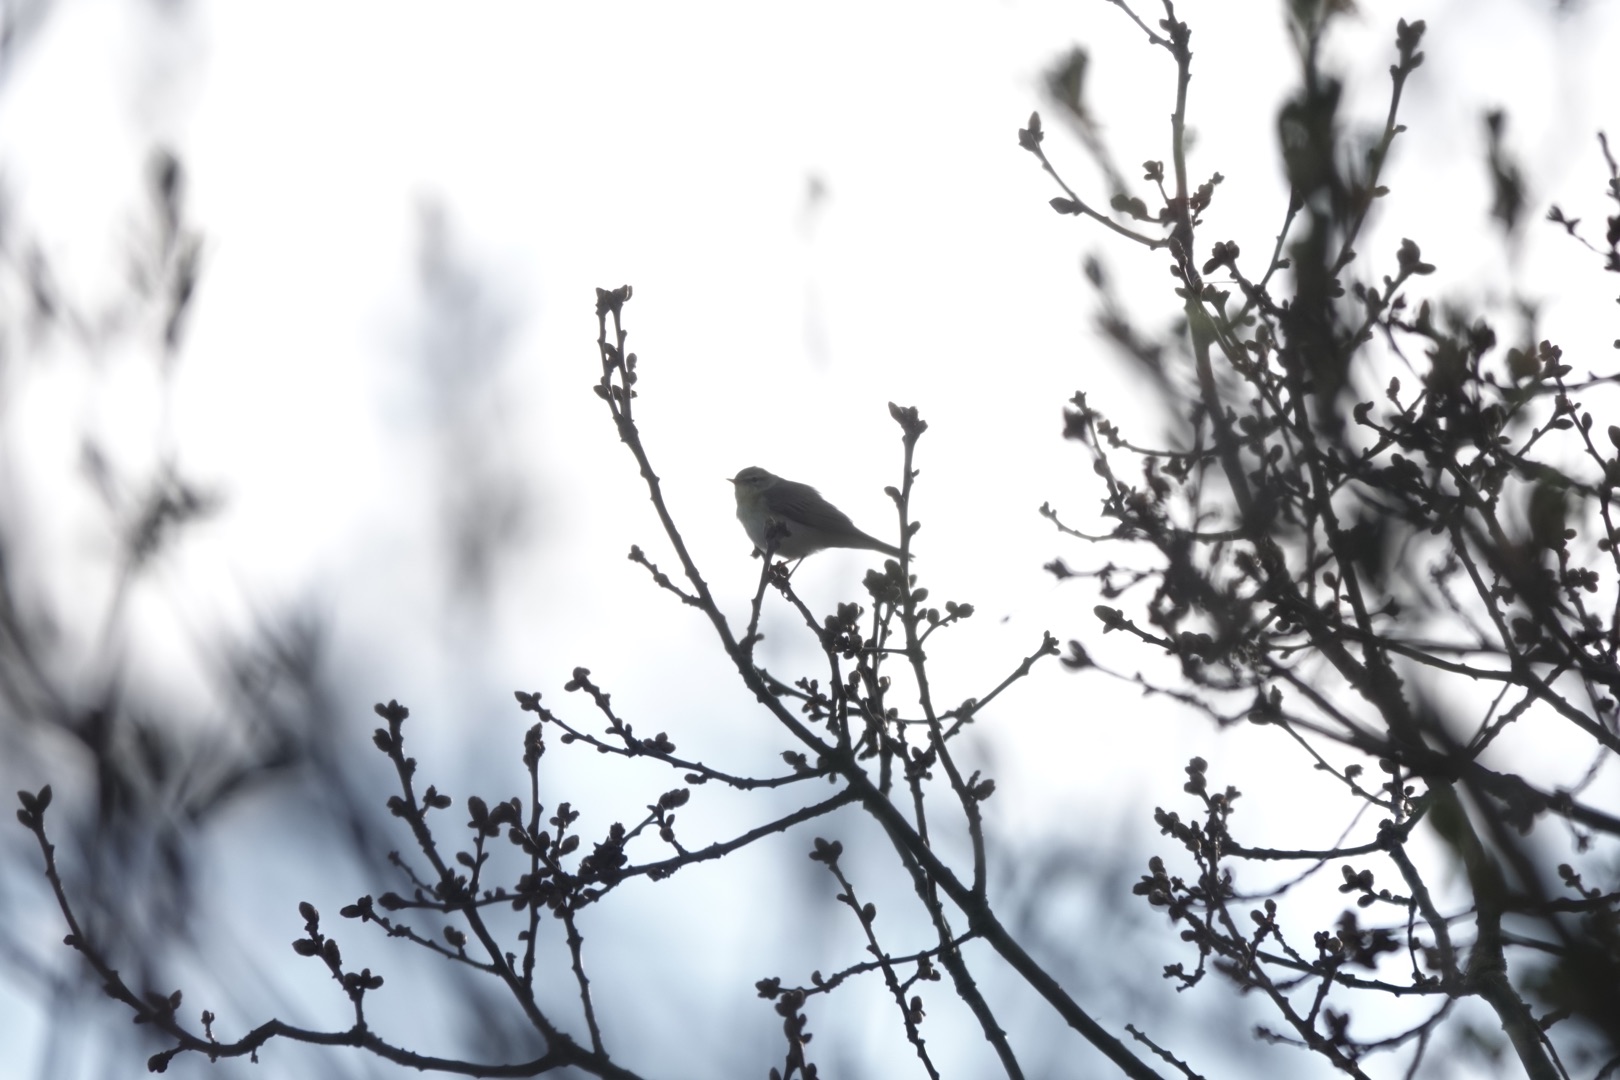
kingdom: Animalia
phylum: Chordata
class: Aves
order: Passeriformes
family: Phylloscopidae
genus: Phylloscopus
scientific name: Phylloscopus trochilus
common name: Løvsanger
